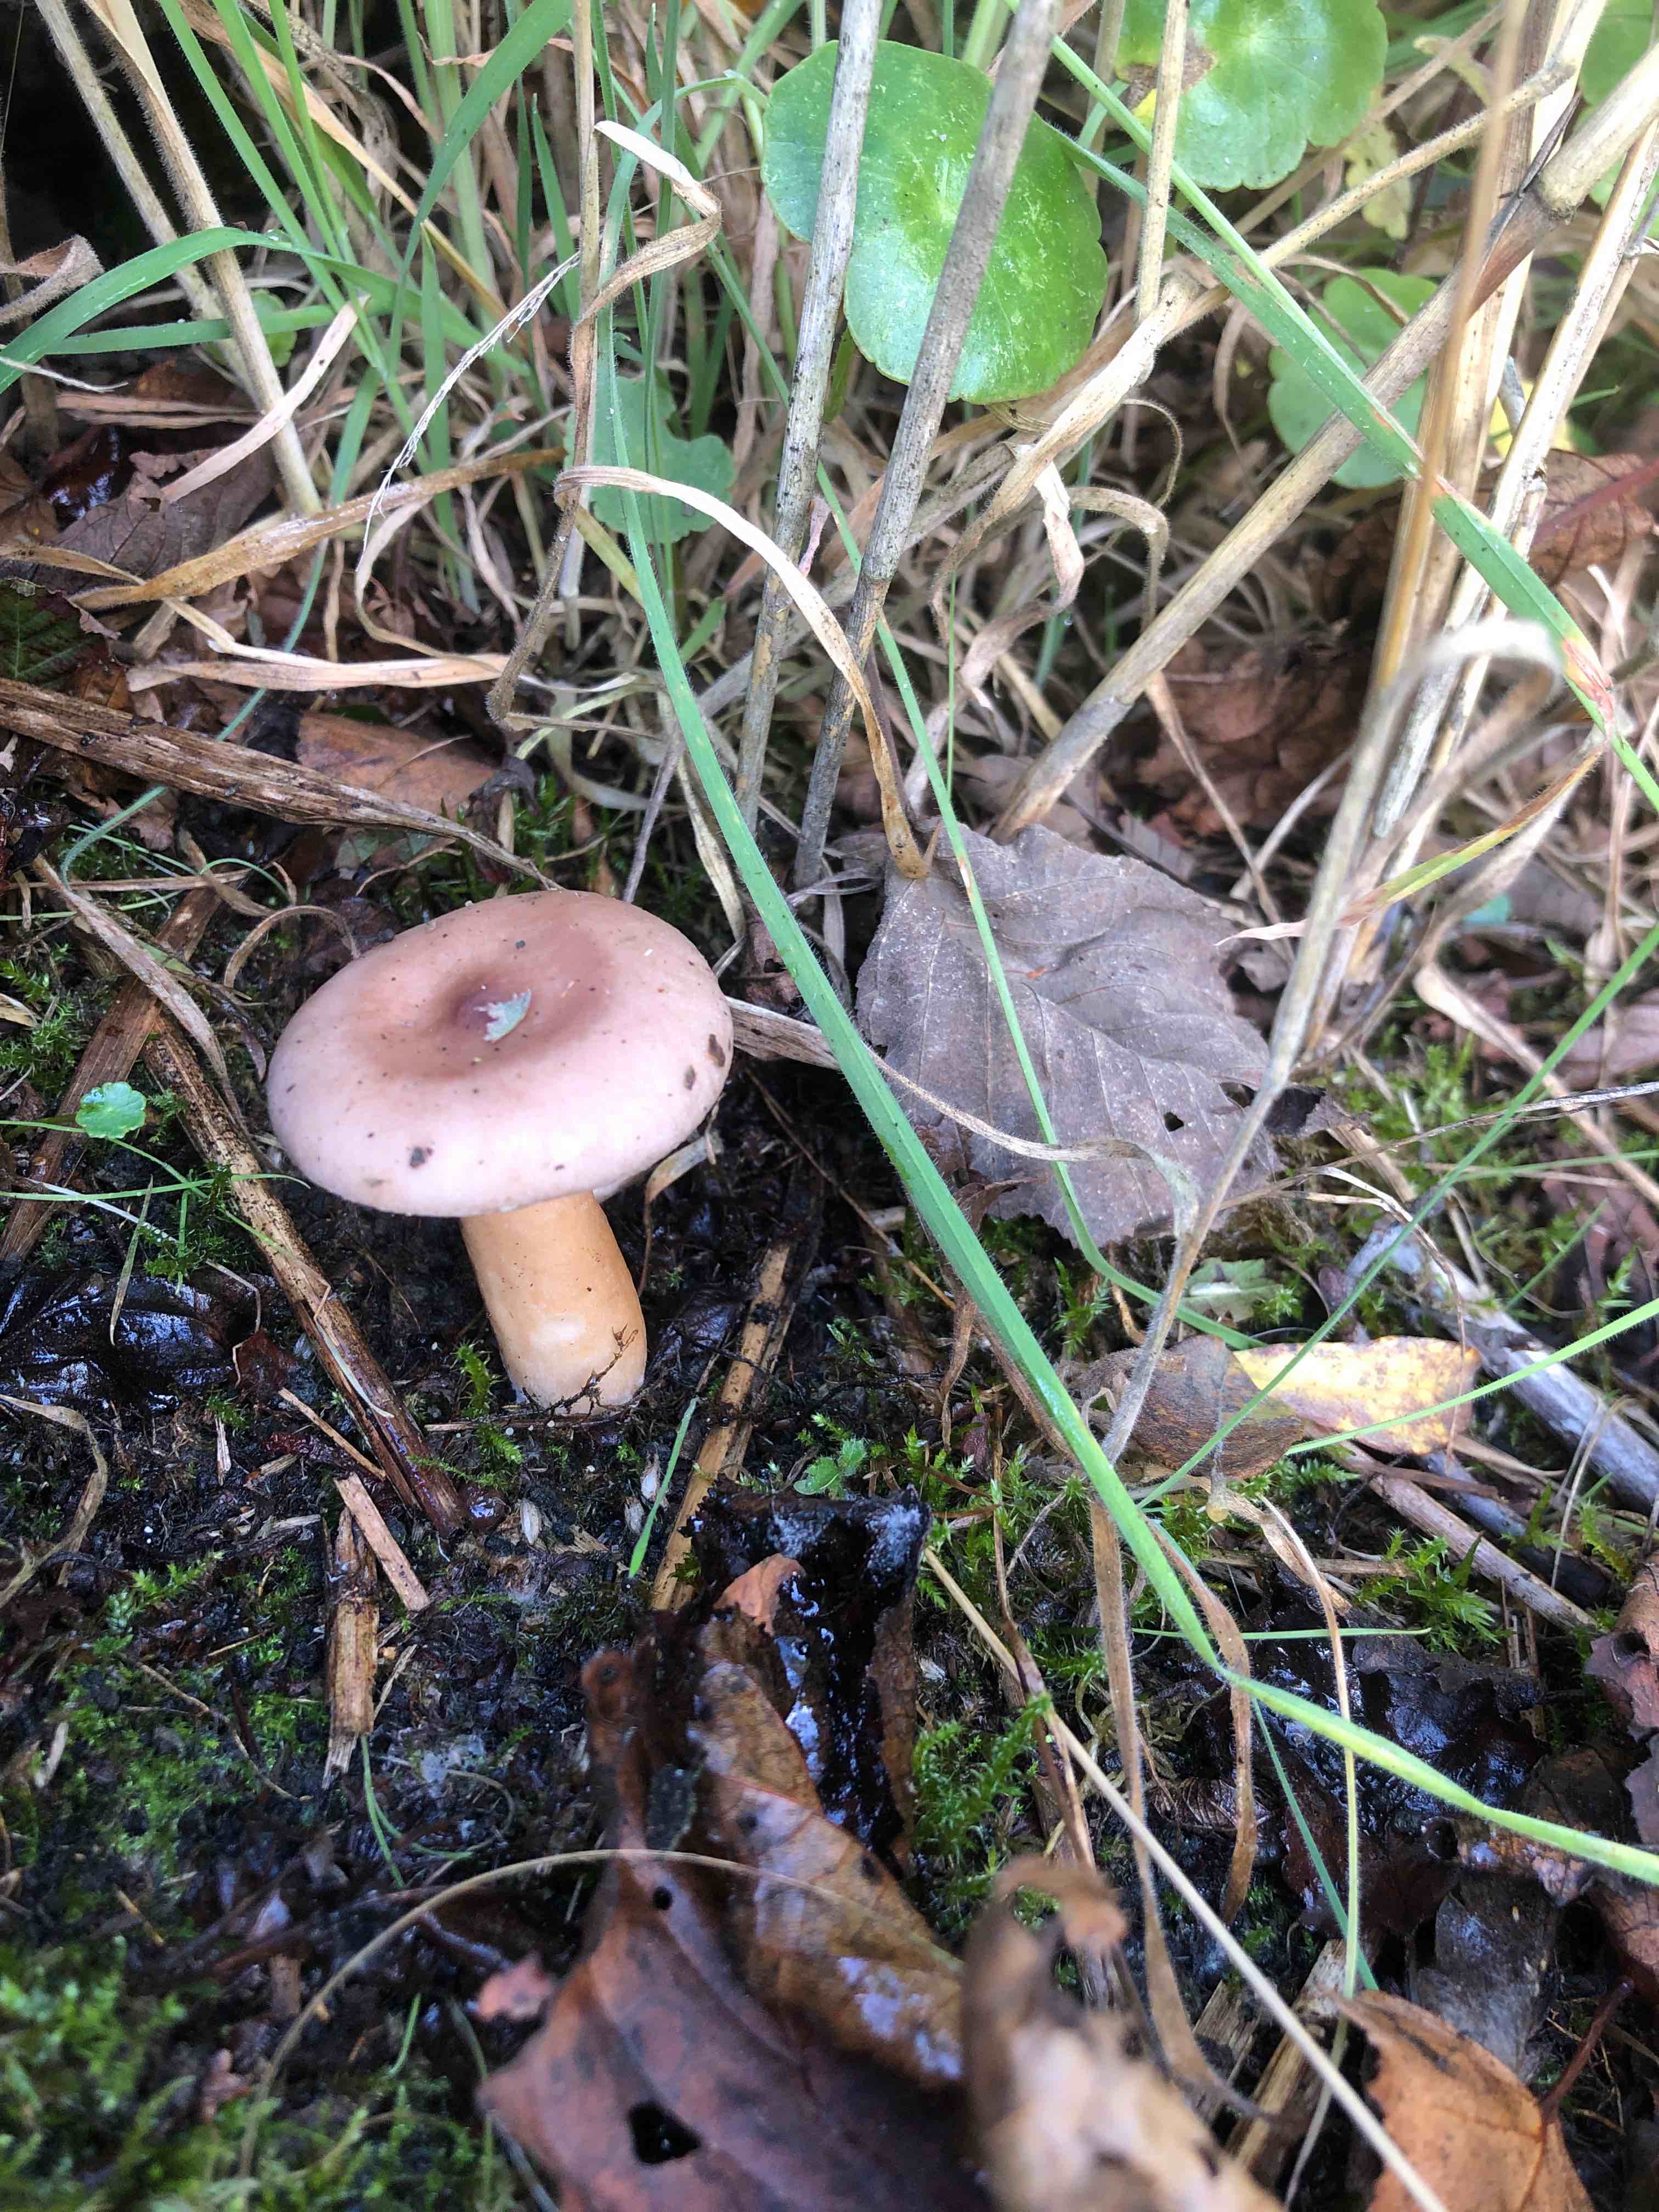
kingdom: Fungi
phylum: Basidiomycota
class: Agaricomycetes
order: Russulales
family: Russulaceae
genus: Lactarius
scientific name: Lactarius lilacinus
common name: lilla mælkehat
